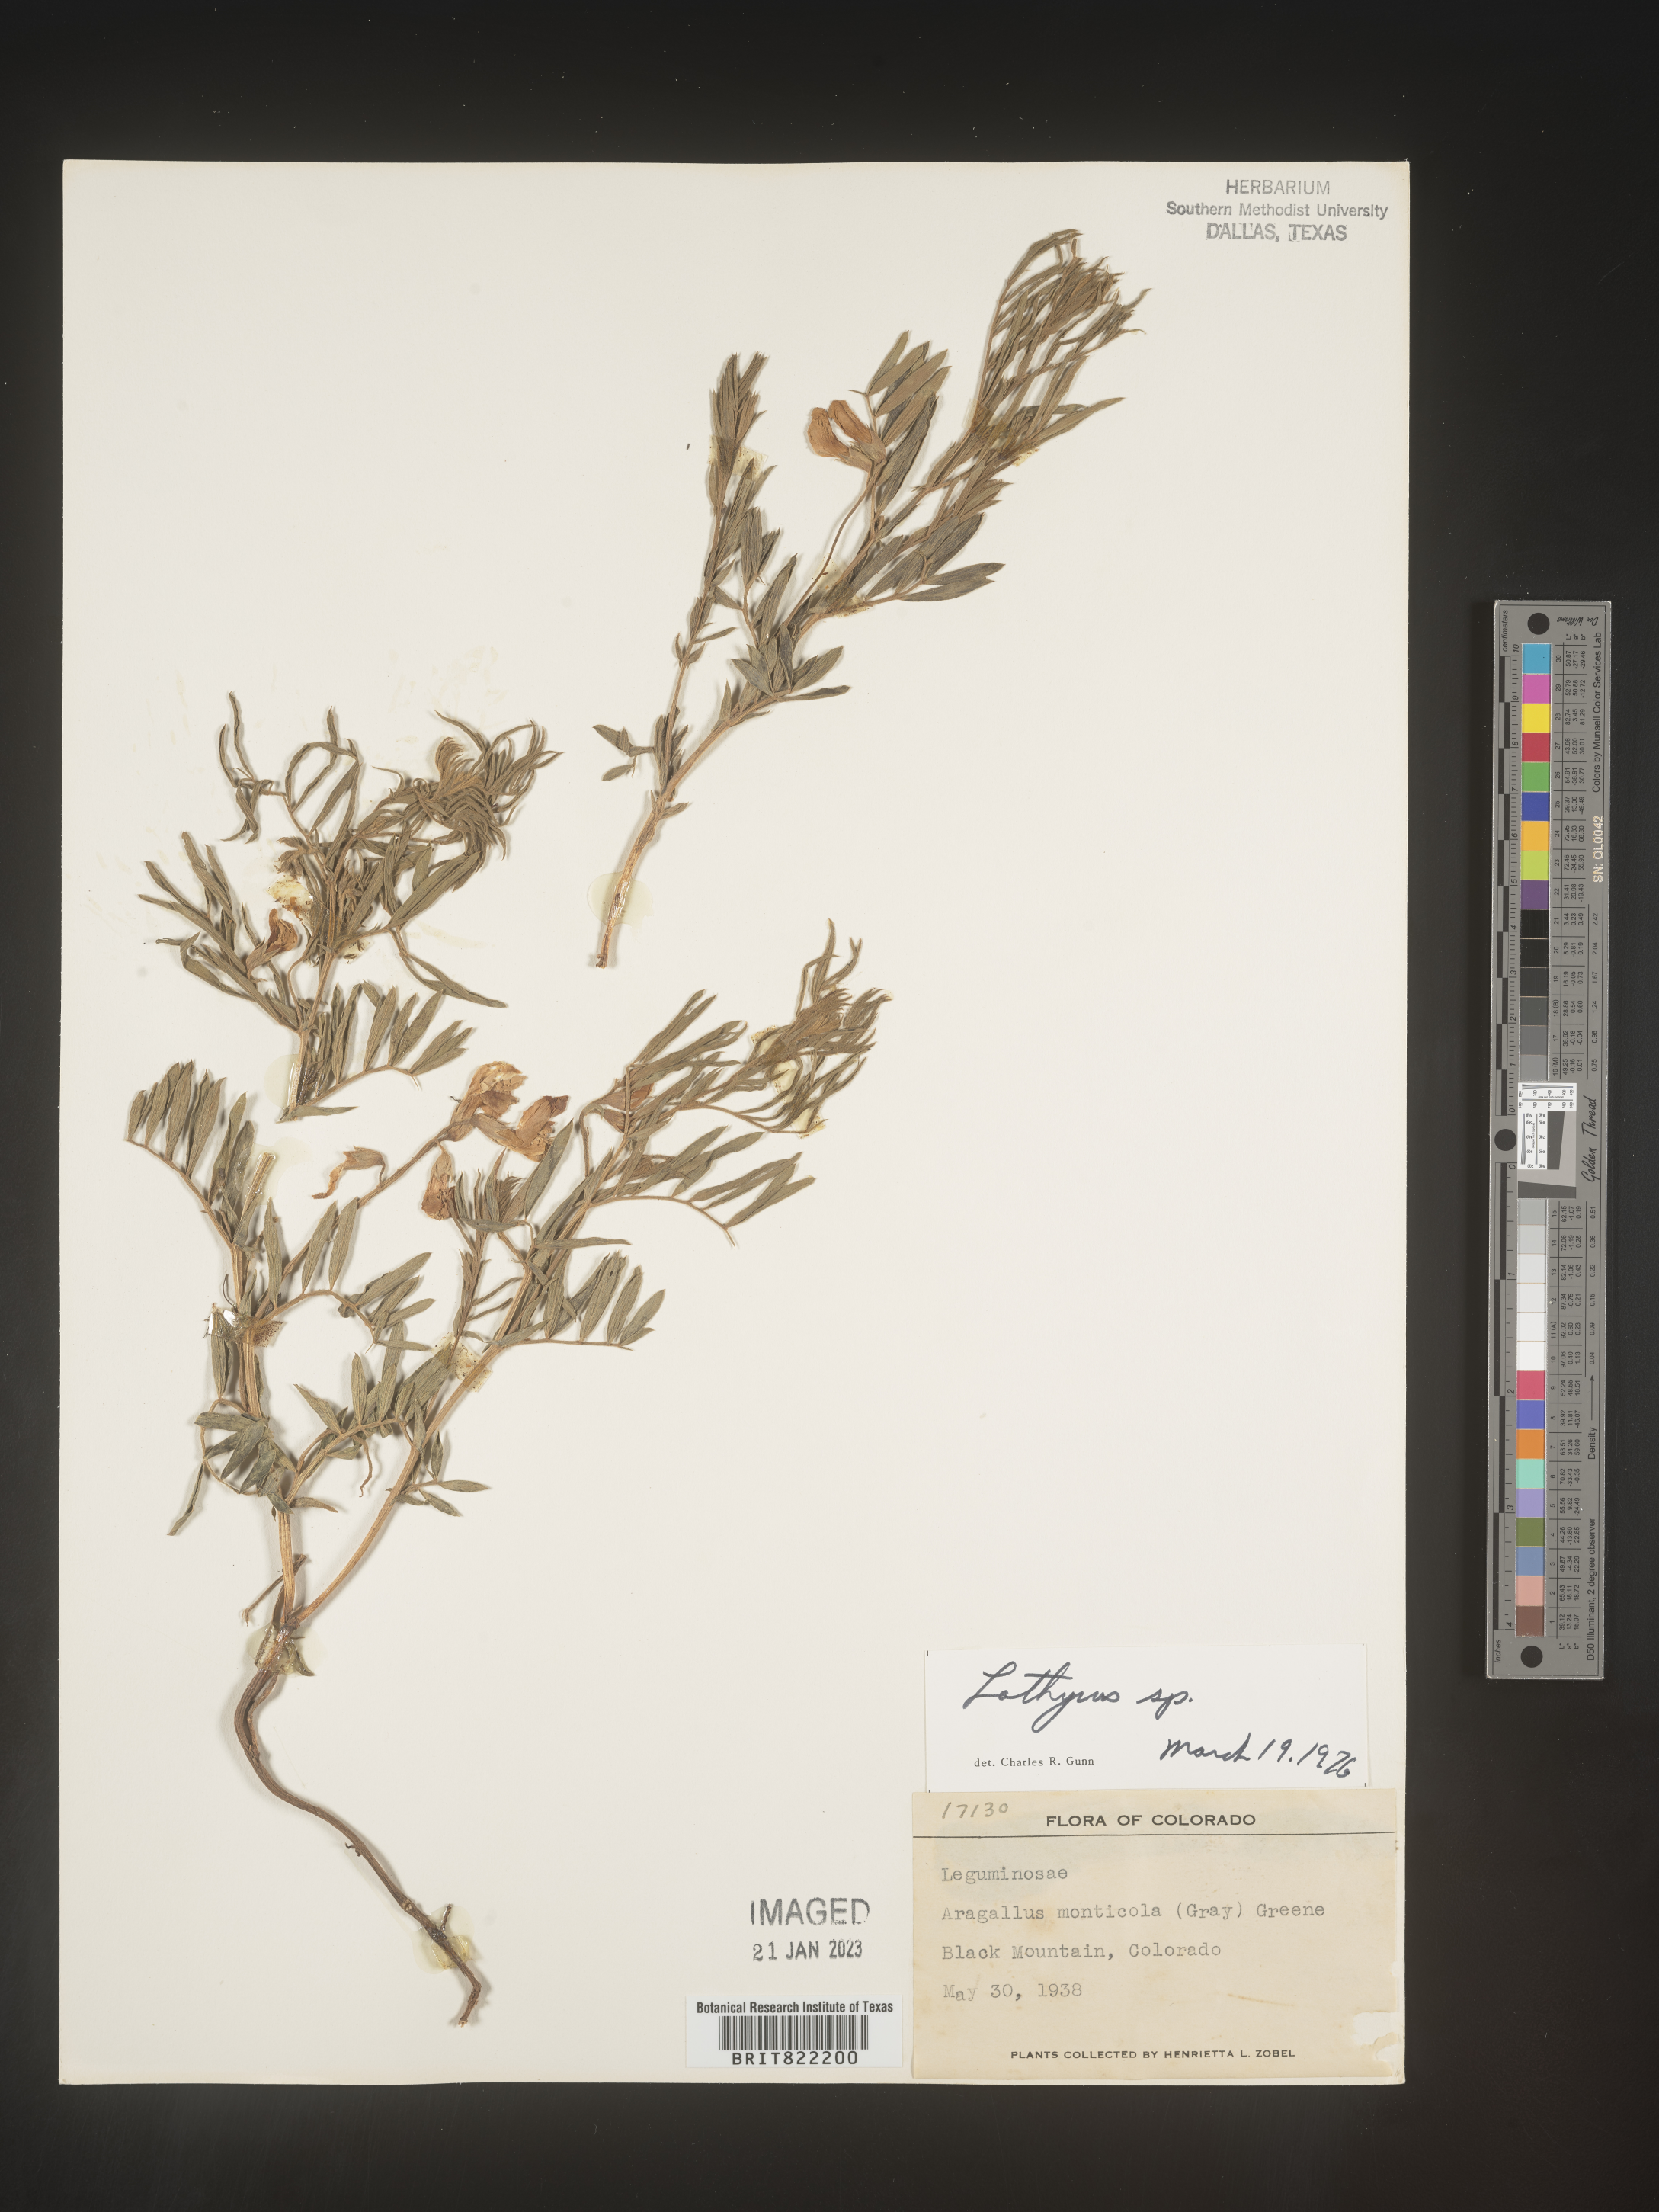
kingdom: Plantae
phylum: Tracheophyta
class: Magnoliopsida
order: Fabales
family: Fabaceae
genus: Lathyrus
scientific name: Lathyrus
